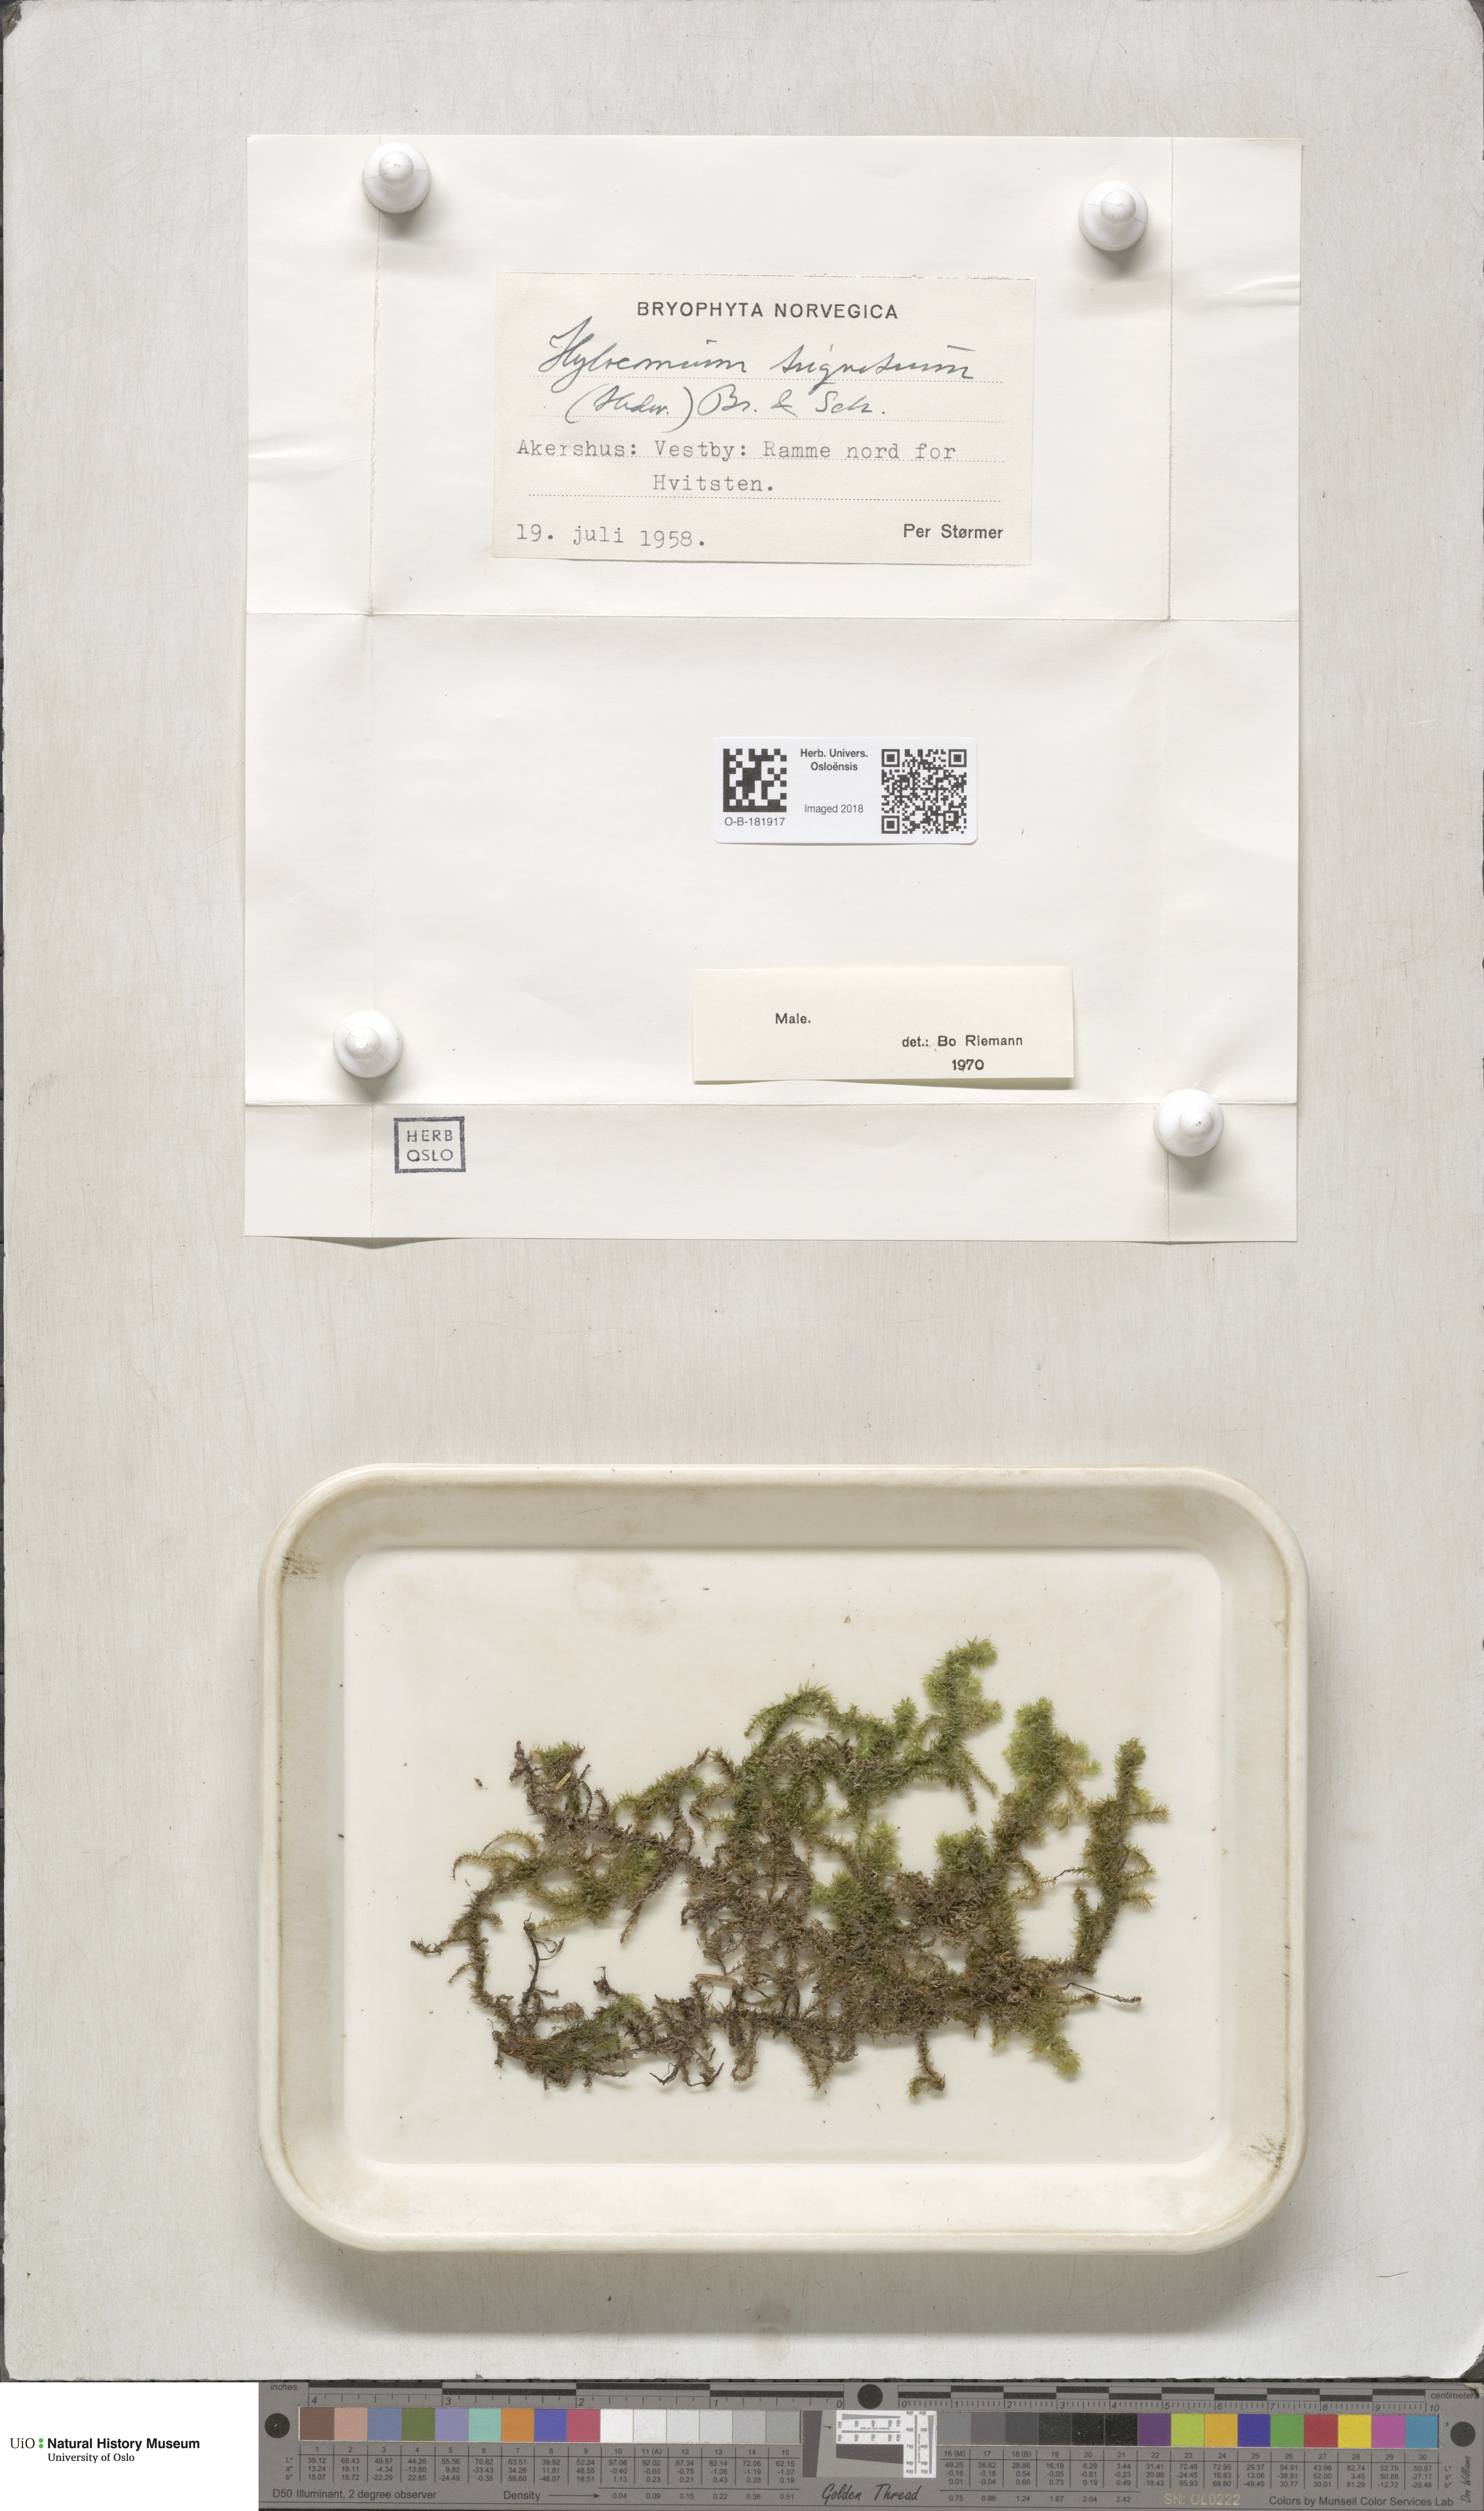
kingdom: Plantae
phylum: Bryophyta
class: Bryopsida
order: Hypnales
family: Hylocomiaceae
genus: Hylocomiadelphus
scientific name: Hylocomiadelphus triquetrus
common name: Rough goose neck moss
